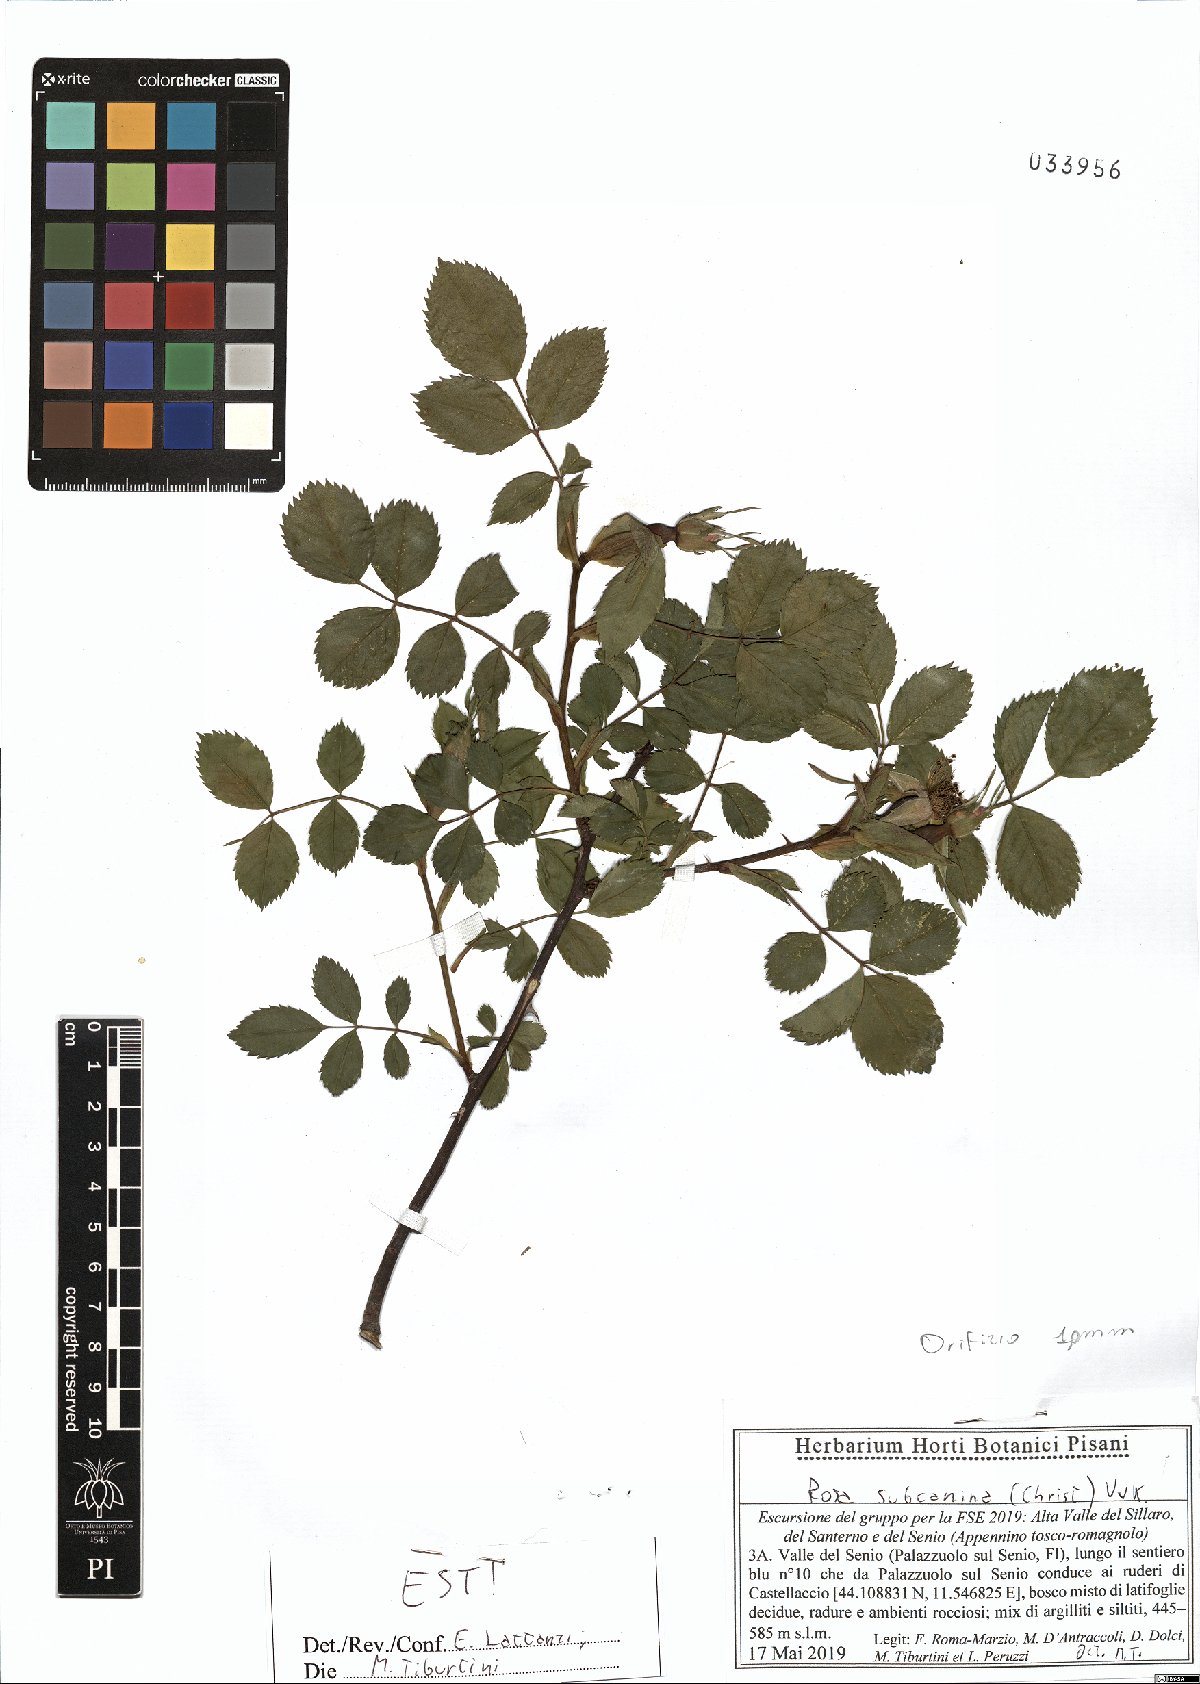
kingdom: Plantae
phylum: Tracheophyta
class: Magnoliopsida
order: Rosales
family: Rosaceae
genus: Rosa
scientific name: Rosa subcanina
